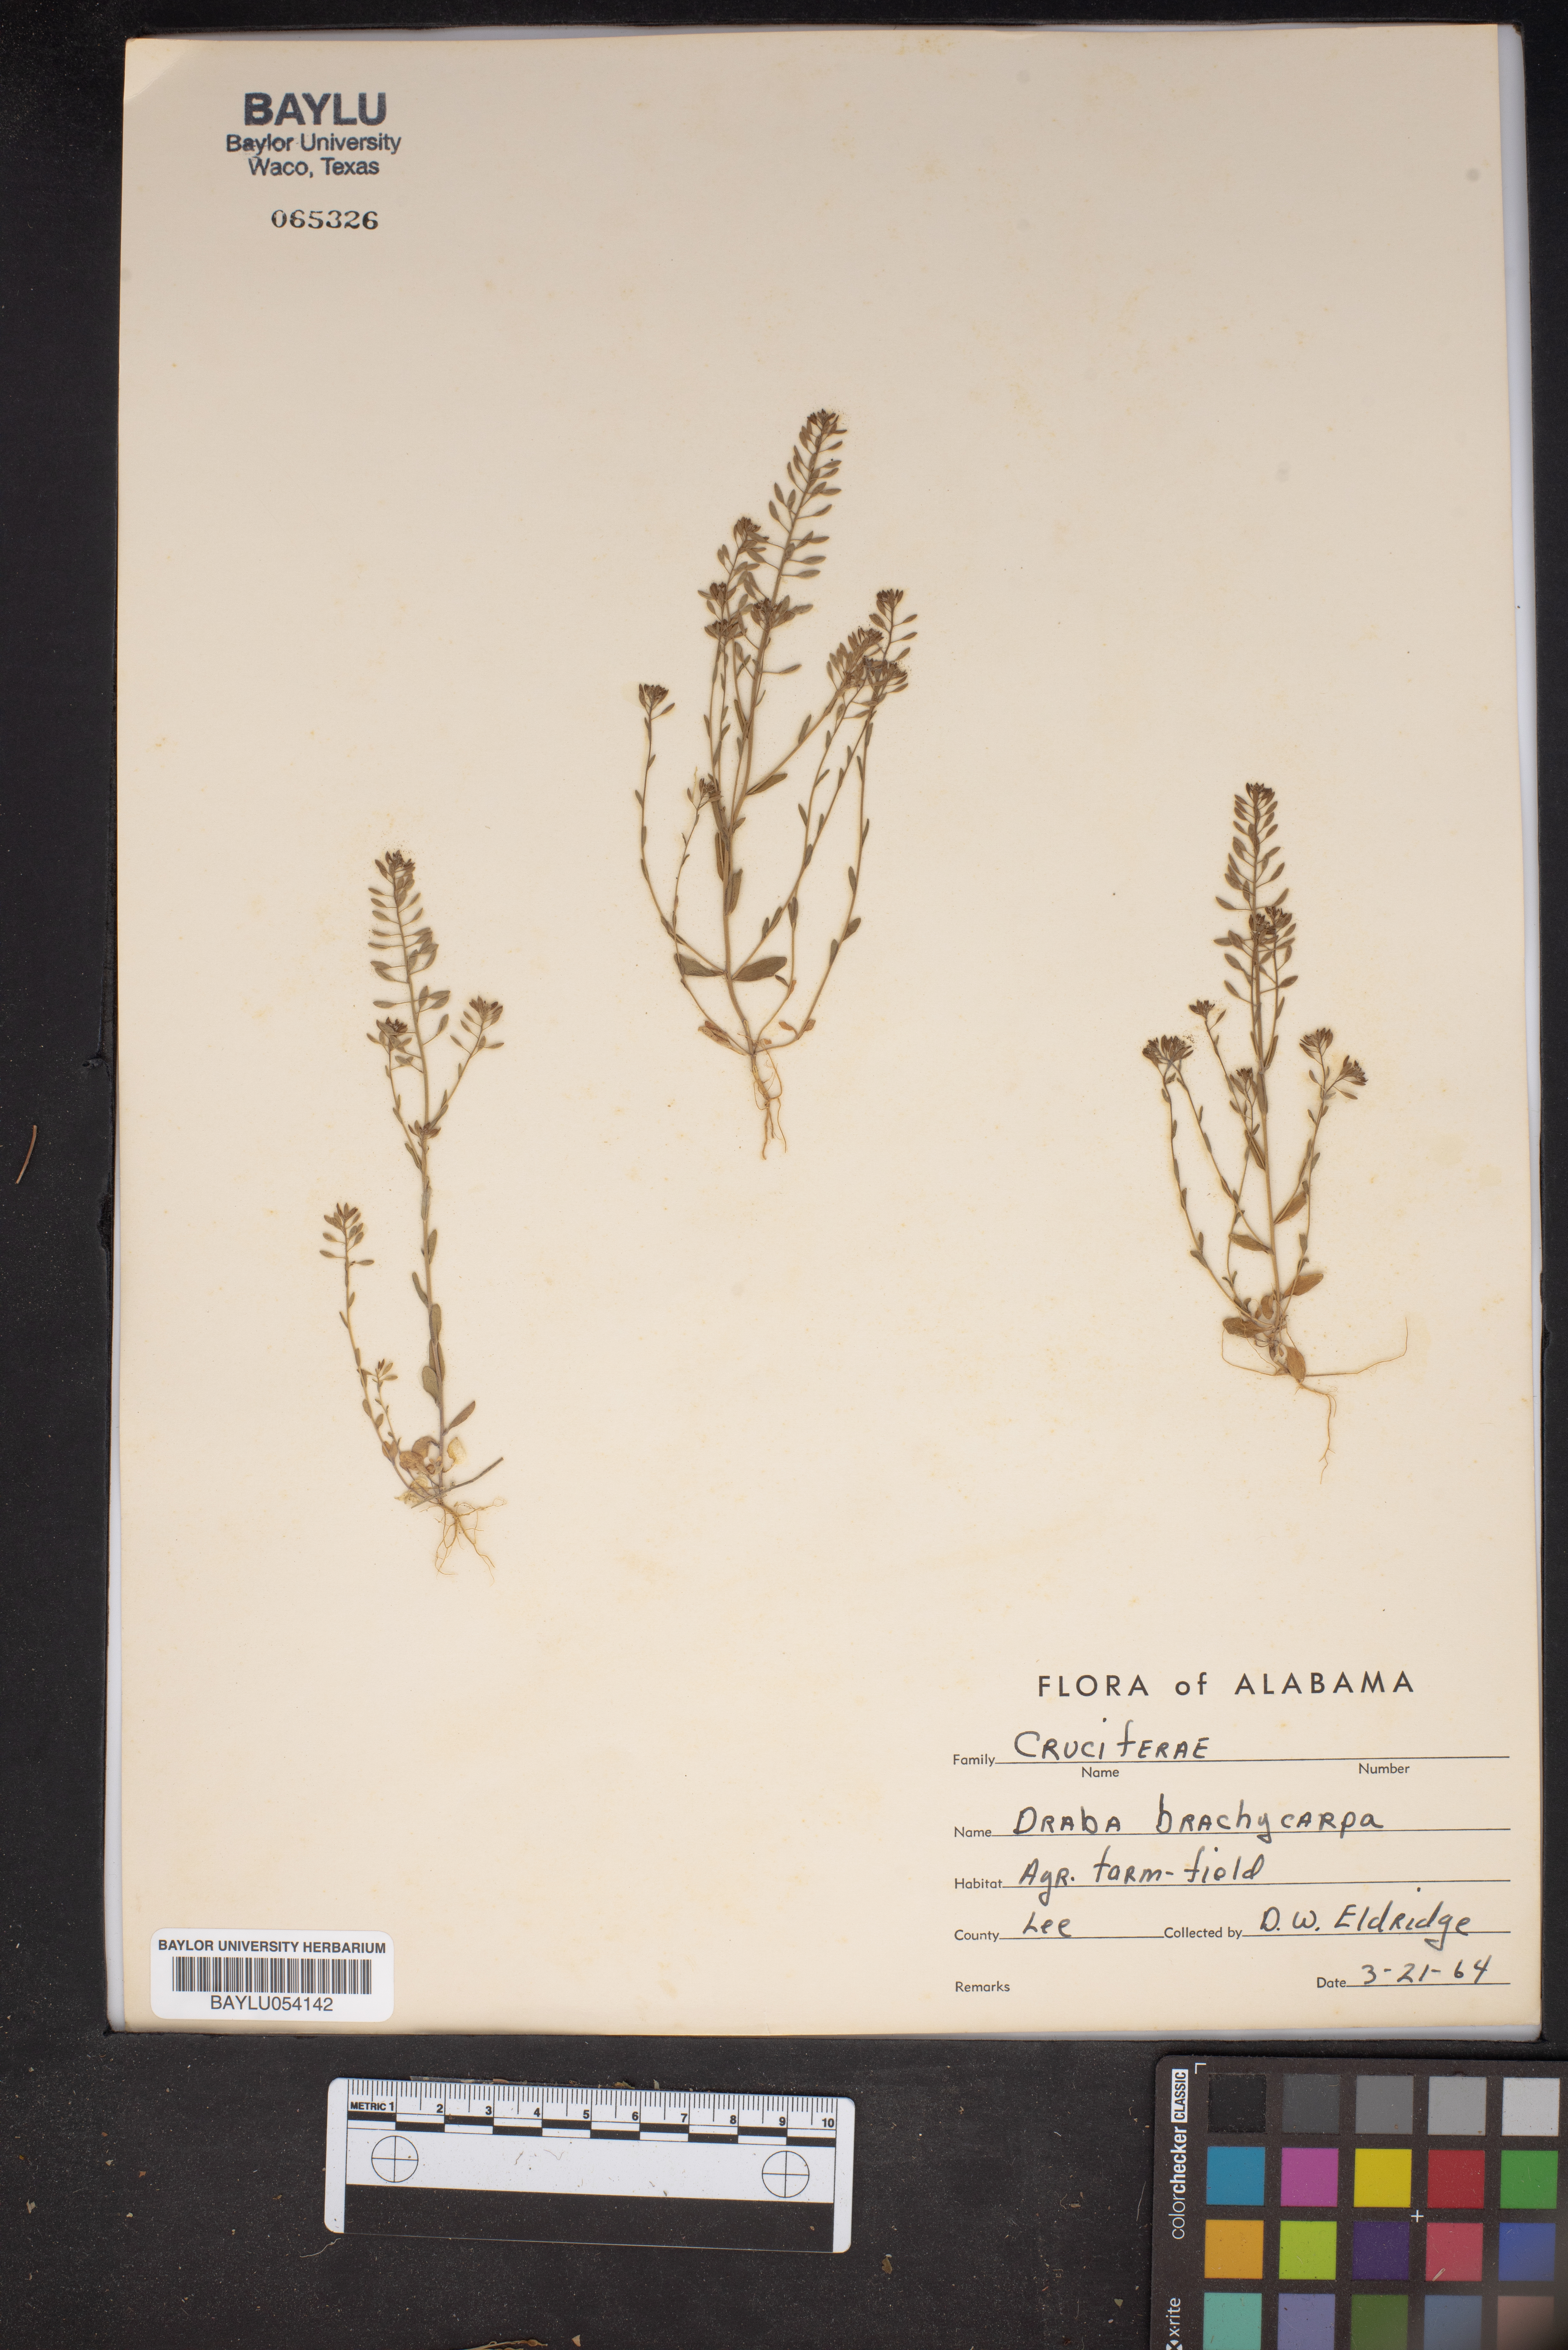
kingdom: Plantae
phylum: Tracheophyta
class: Magnoliopsida
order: Brassicales
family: Brassicaceae
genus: Abdra
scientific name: Abdra brachycarpa
